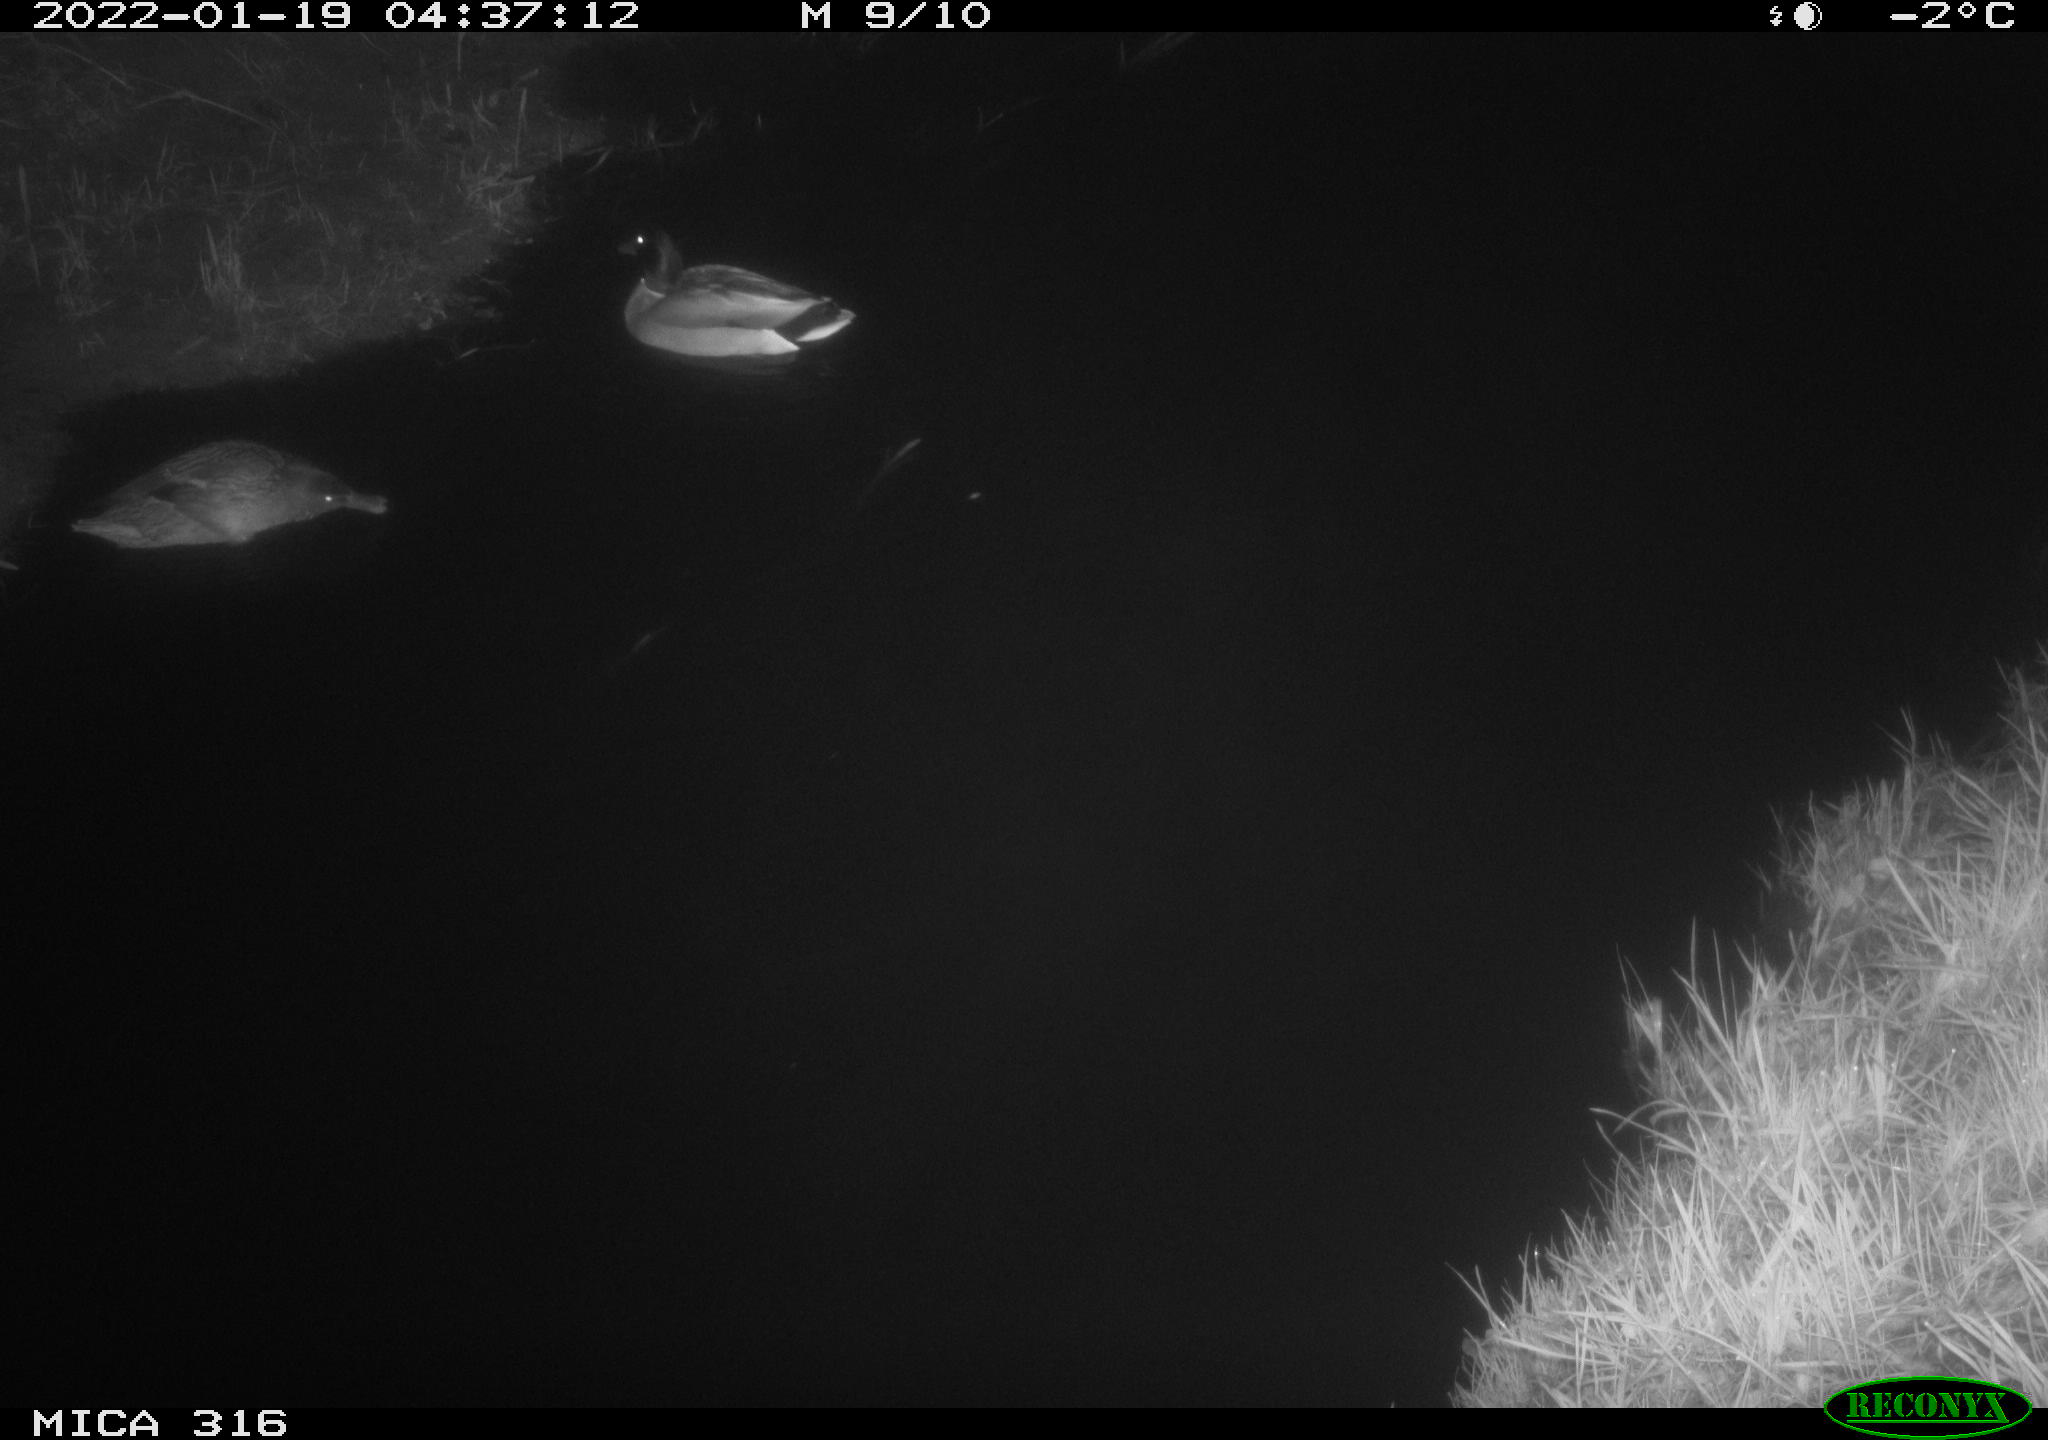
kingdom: Animalia
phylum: Chordata
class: Aves
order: Anseriformes
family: Anatidae
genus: Anas
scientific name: Anas
